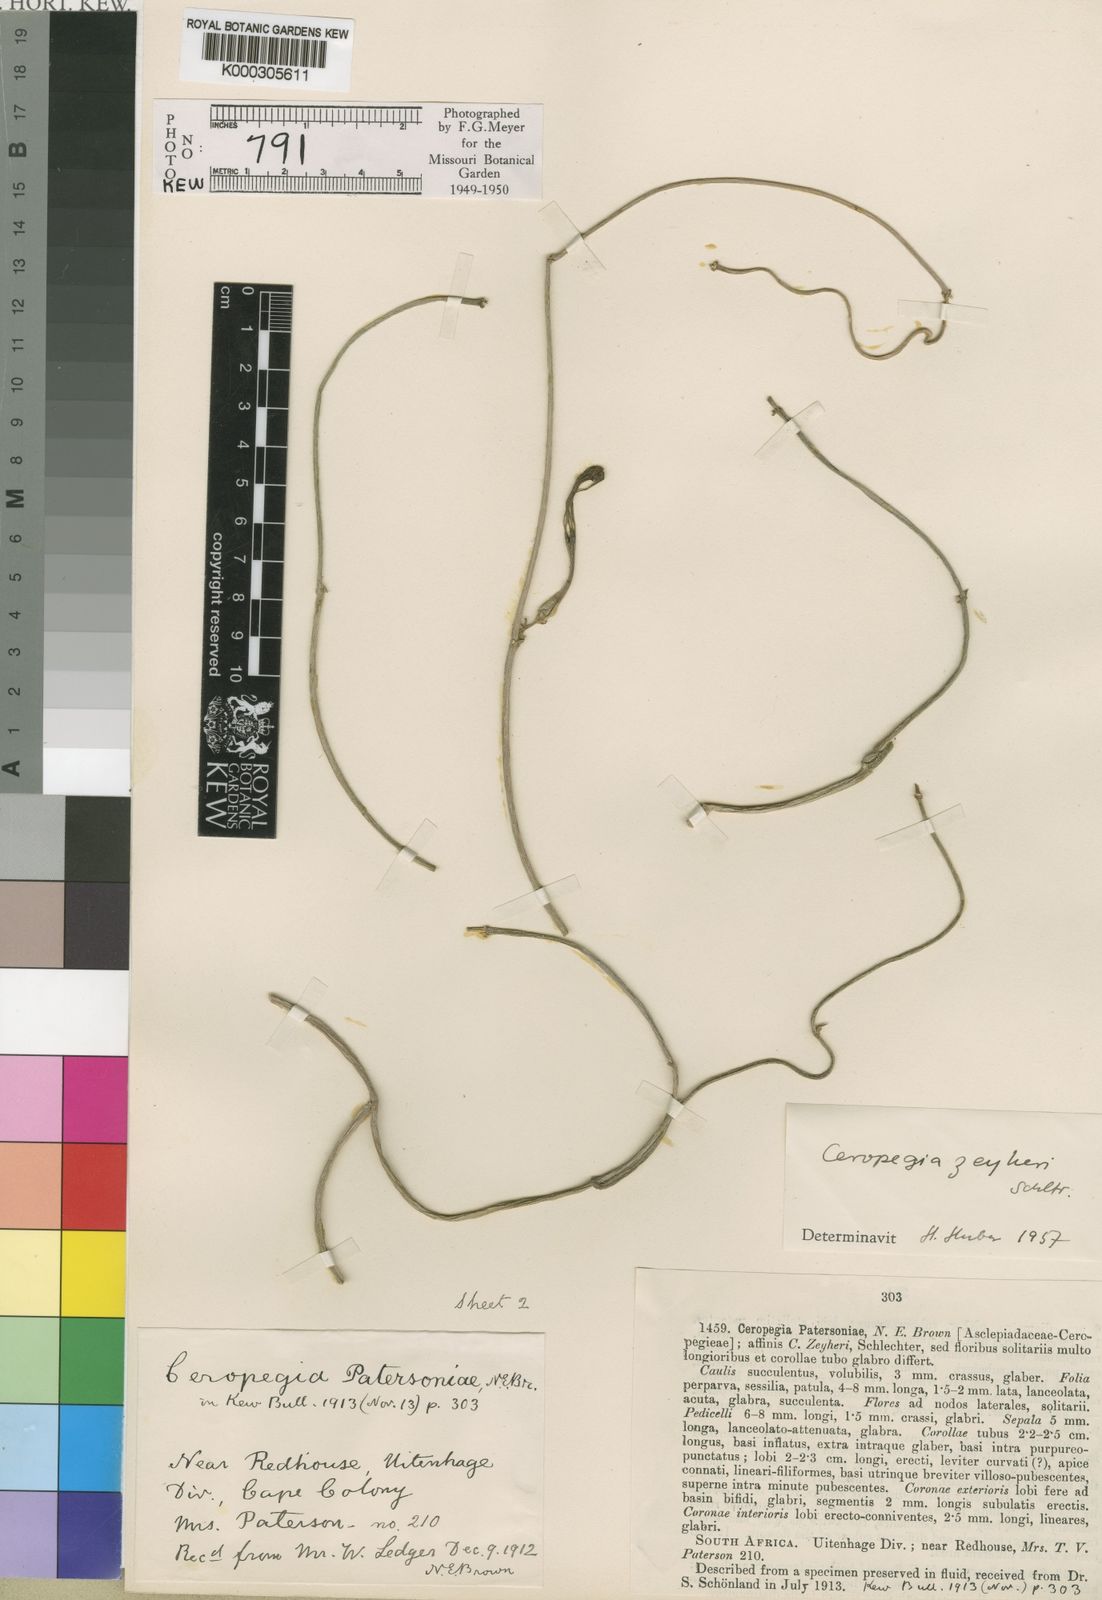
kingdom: Plantae
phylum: Tracheophyta
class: Magnoliopsida
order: Gentianales
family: Apocynaceae
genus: Ceropegia
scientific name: Ceropegia zeyheri
